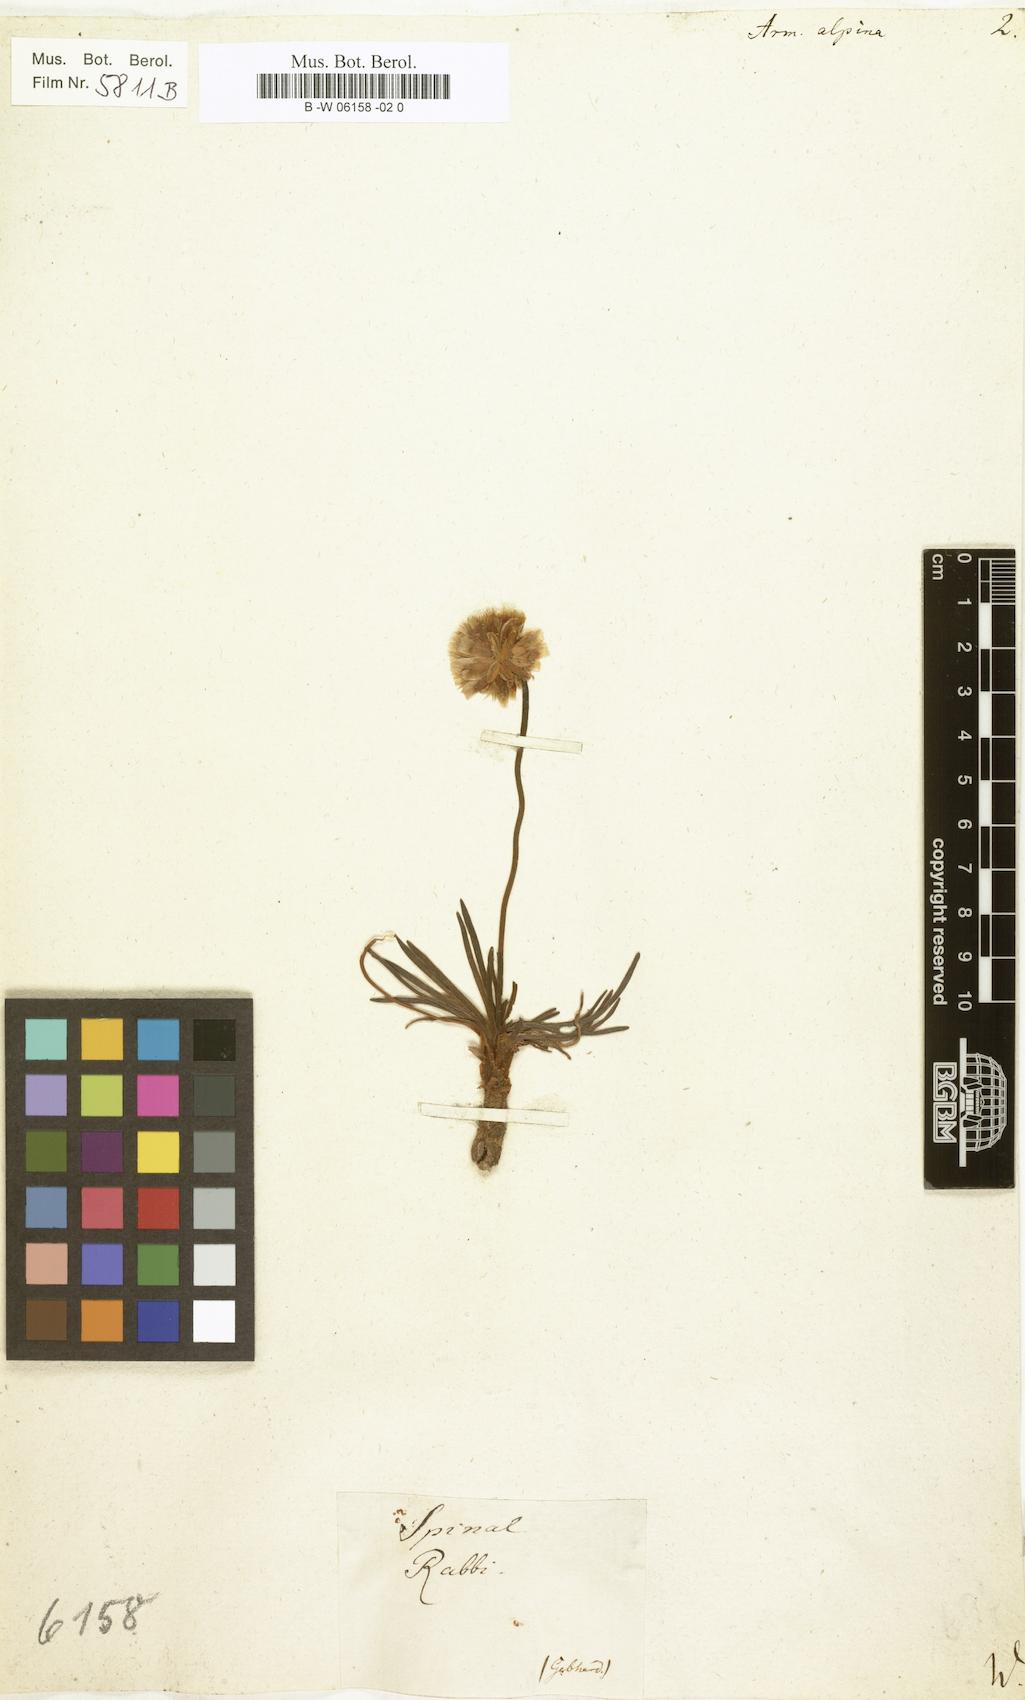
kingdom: Plantae
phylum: Tracheophyta
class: Magnoliopsida
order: Caryophyllales
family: Plumbaginaceae
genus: Armeria
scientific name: Armeria alpina
